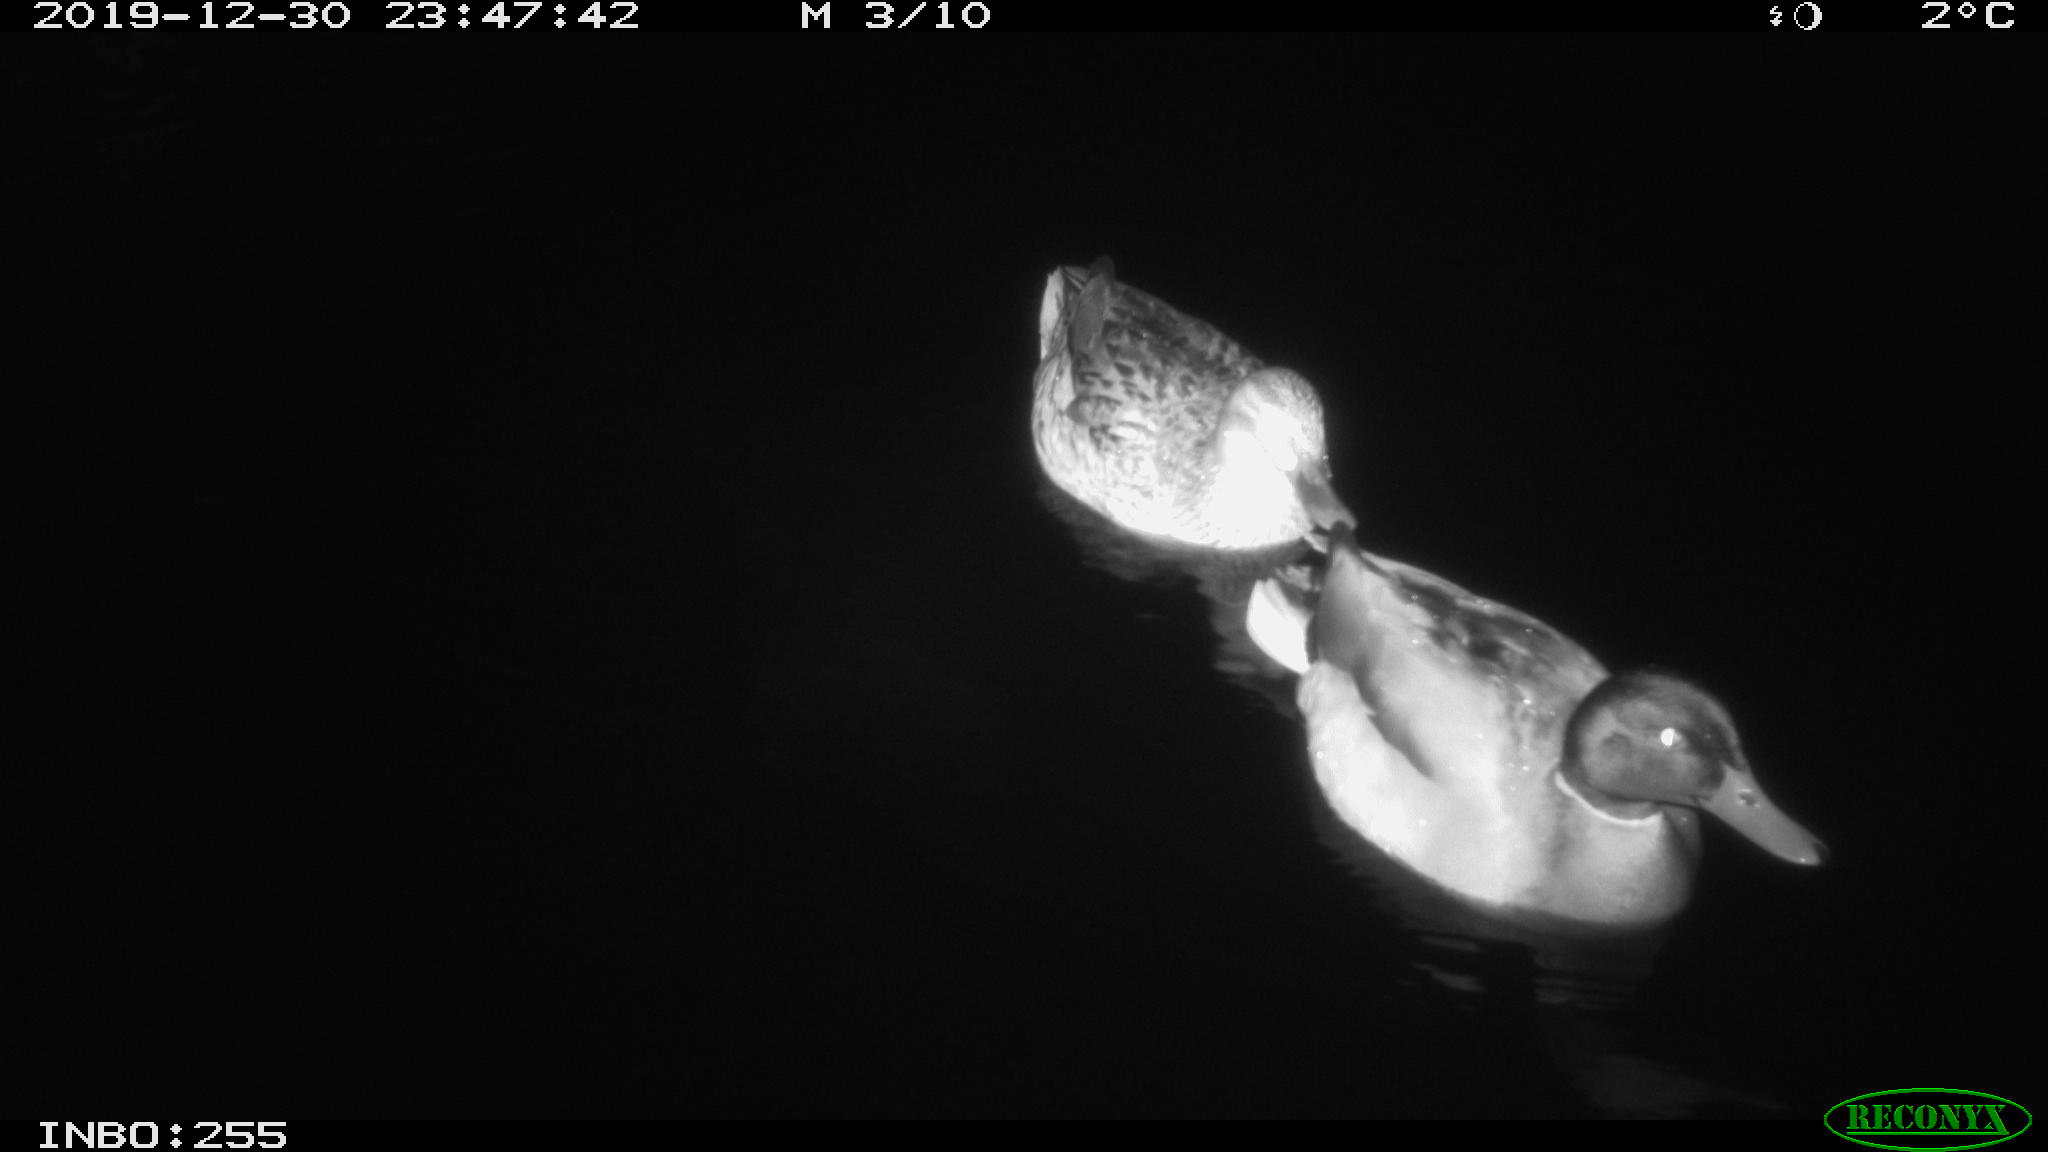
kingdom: Animalia
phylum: Chordata
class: Aves
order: Anseriformes
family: Anatidae
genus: Anas
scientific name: Anas platyrhynchos
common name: Mallard
